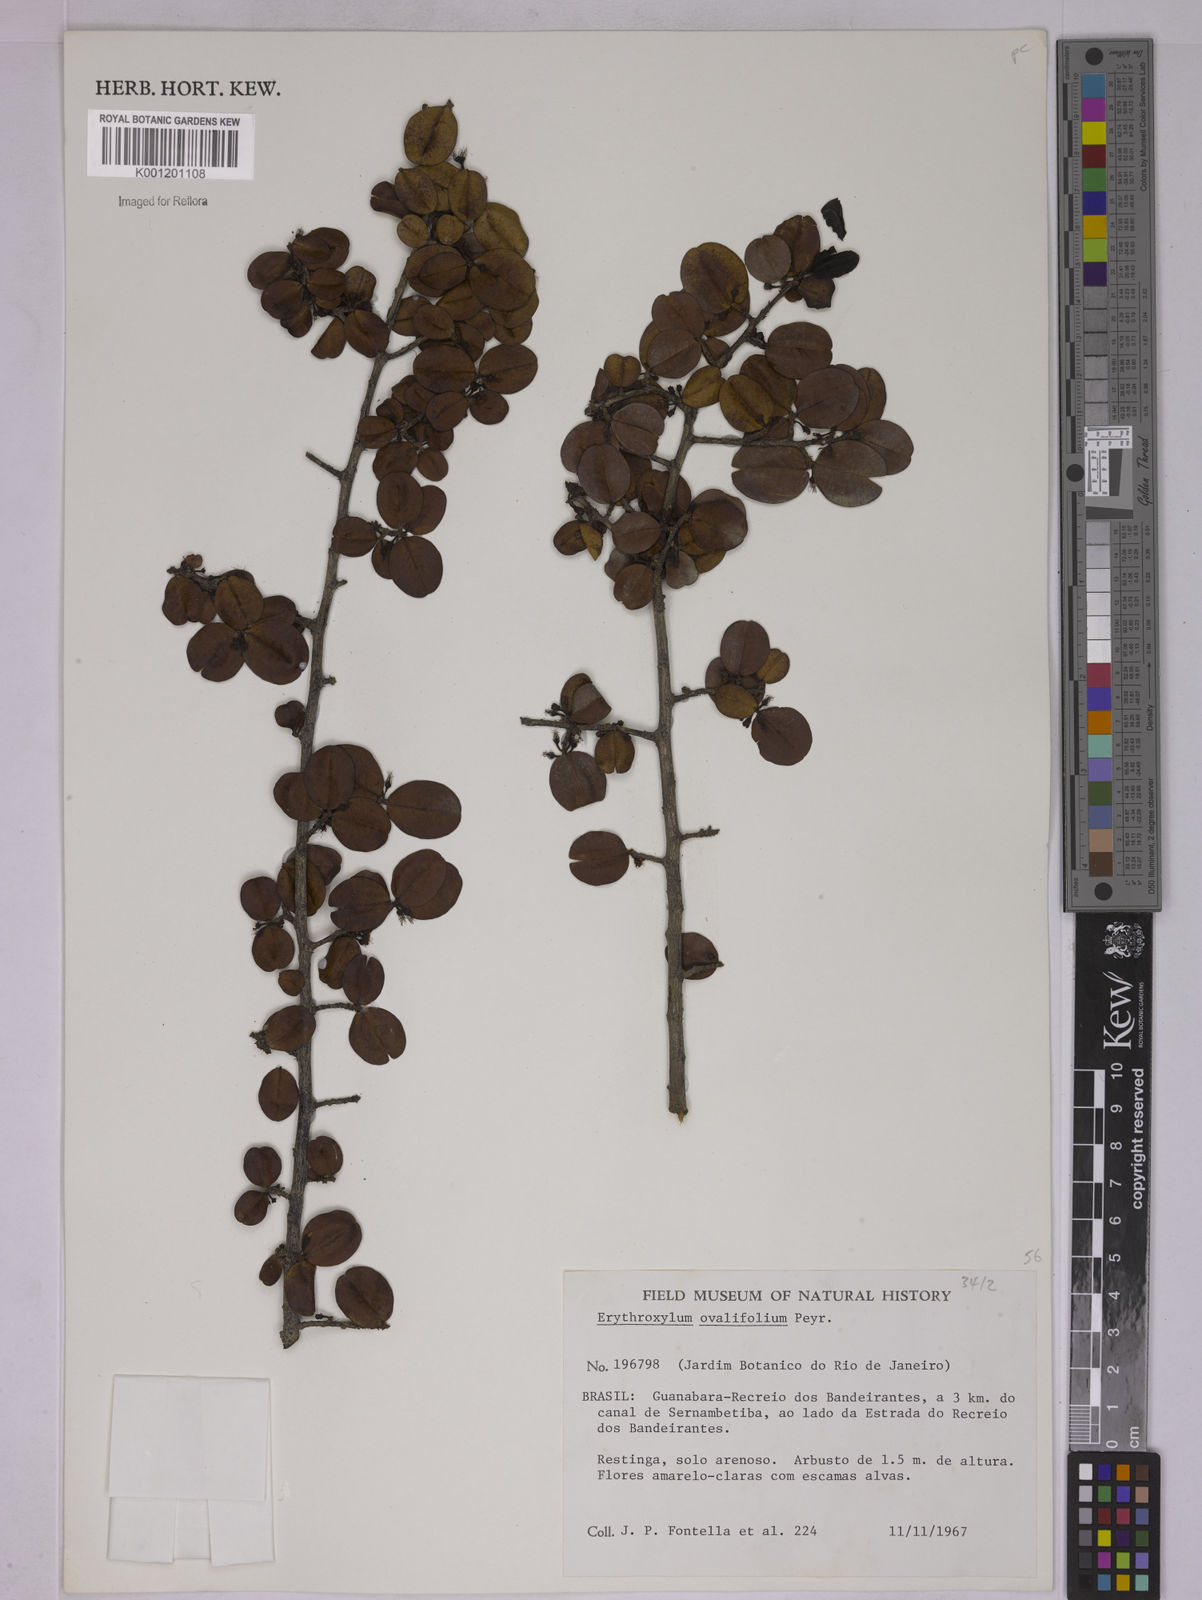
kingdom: Plantae
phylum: Tracheophyta
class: Magnoliopsida
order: Malpighiales
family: Erythroxylaceae
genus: Erythroxylum
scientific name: Erythroxylum ovalifolium
